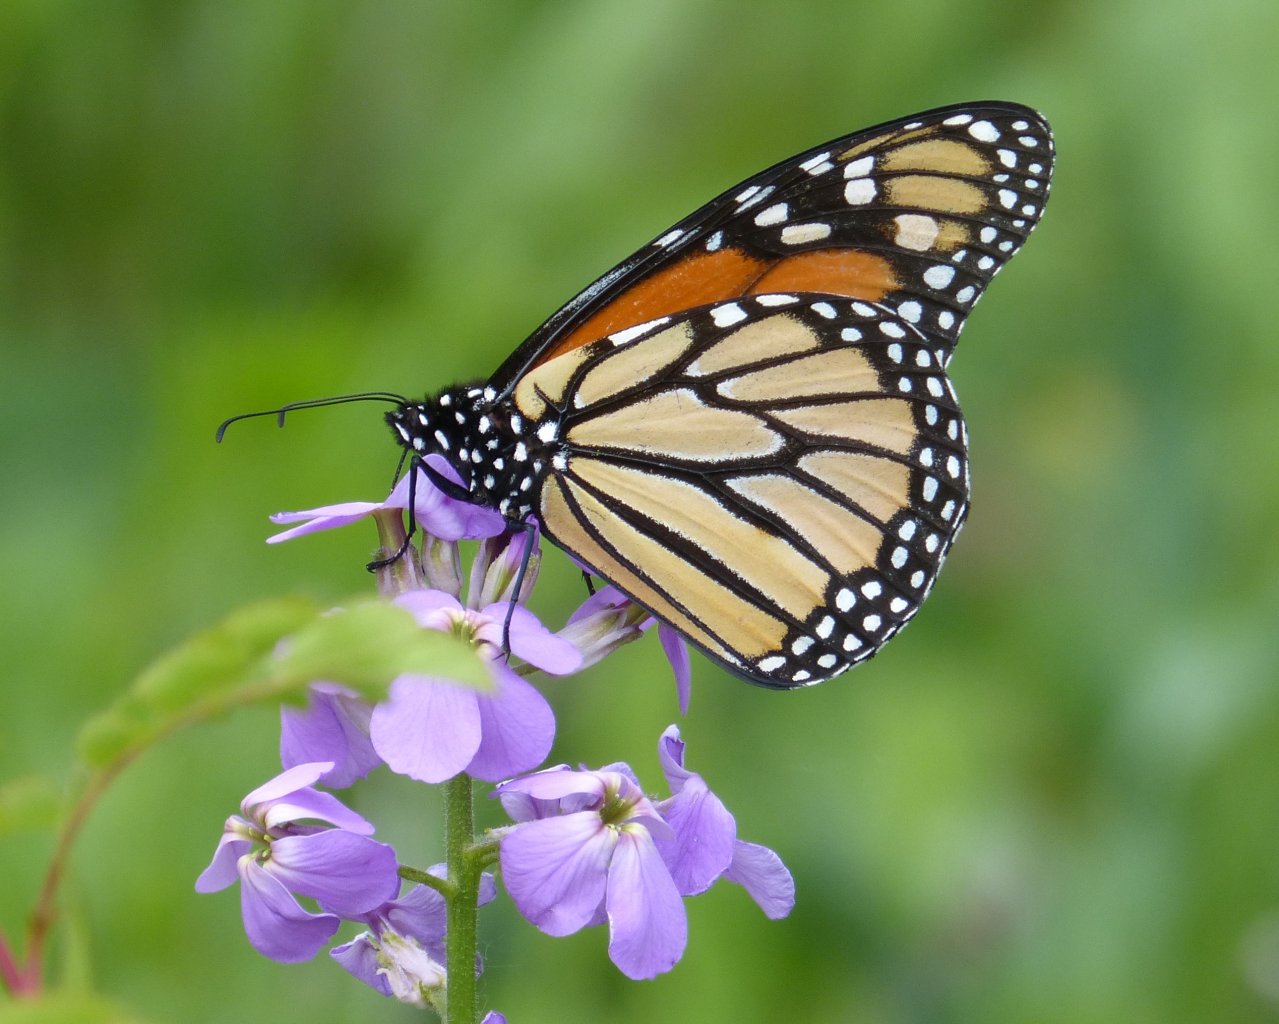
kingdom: Animalia
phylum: Arthropoda
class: Insecta
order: Lepidoptera
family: Nymphalidae
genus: Danaus
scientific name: Danaus plexippus
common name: Monarch
